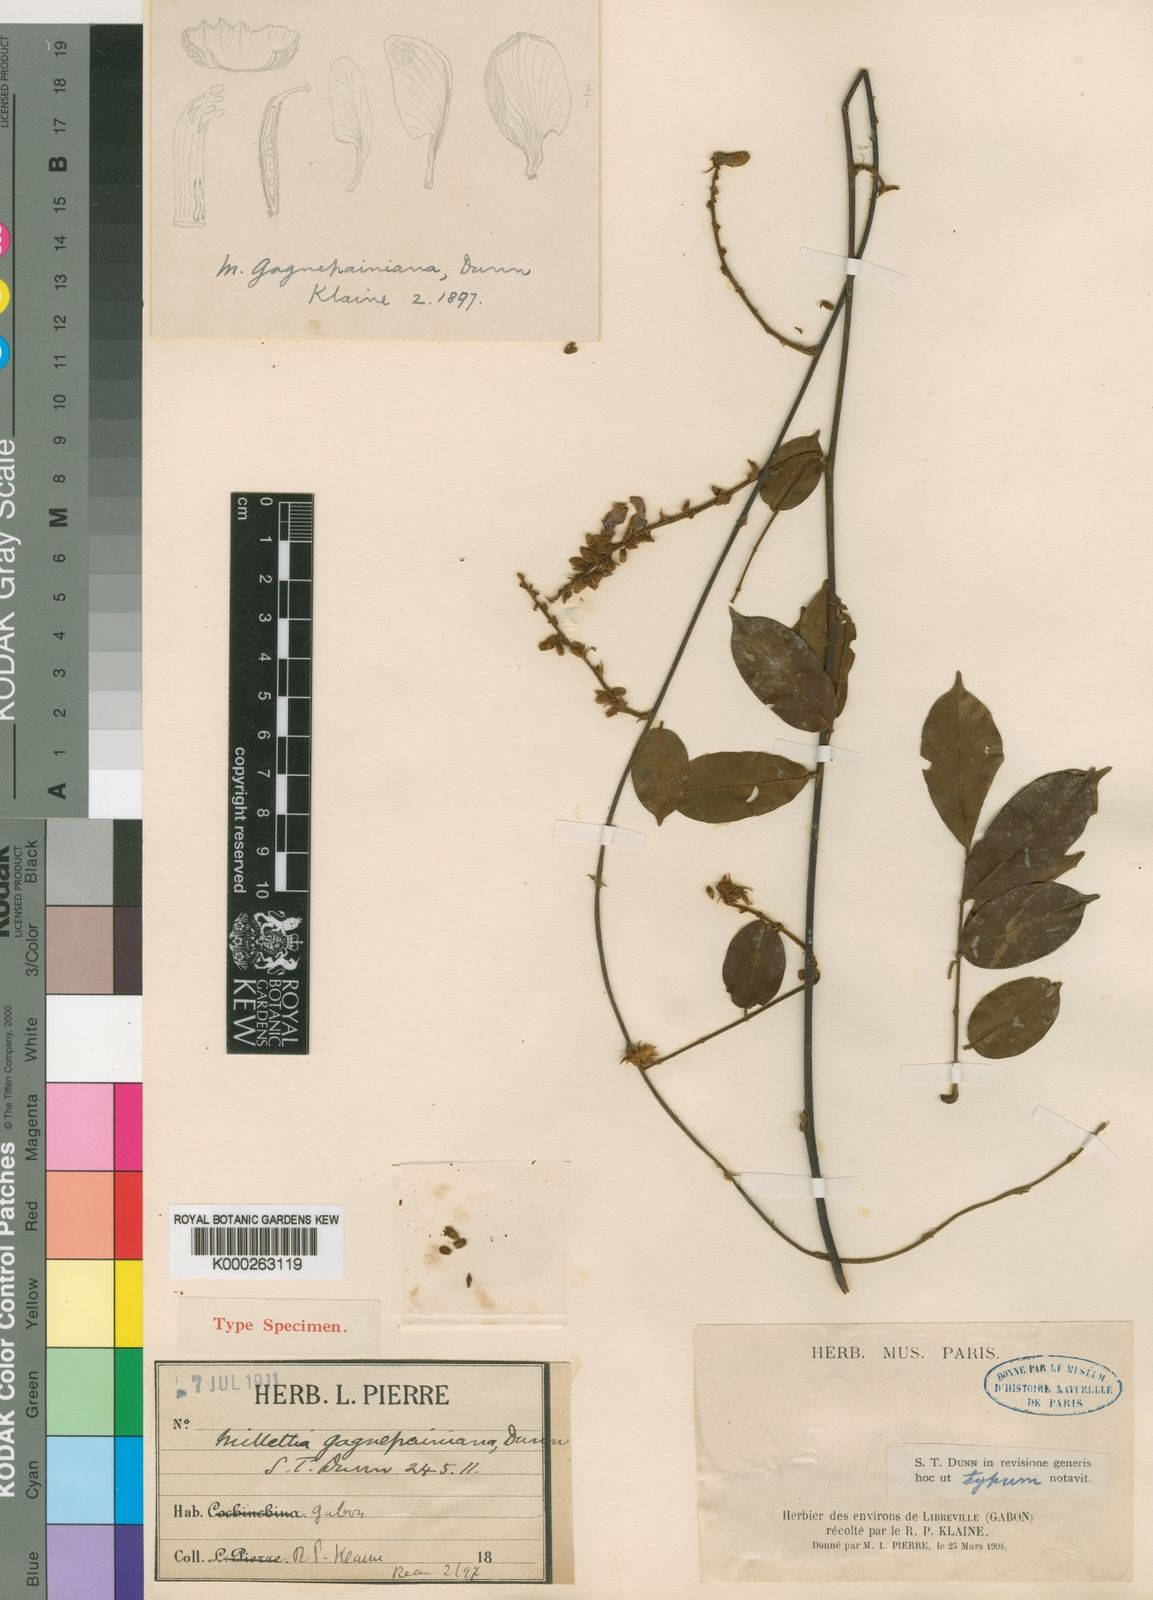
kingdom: Plantae
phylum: Tracheophyta
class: Magnoliopsida
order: Fabales
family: Fabaceae
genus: Millettia
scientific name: Millettia comosa
